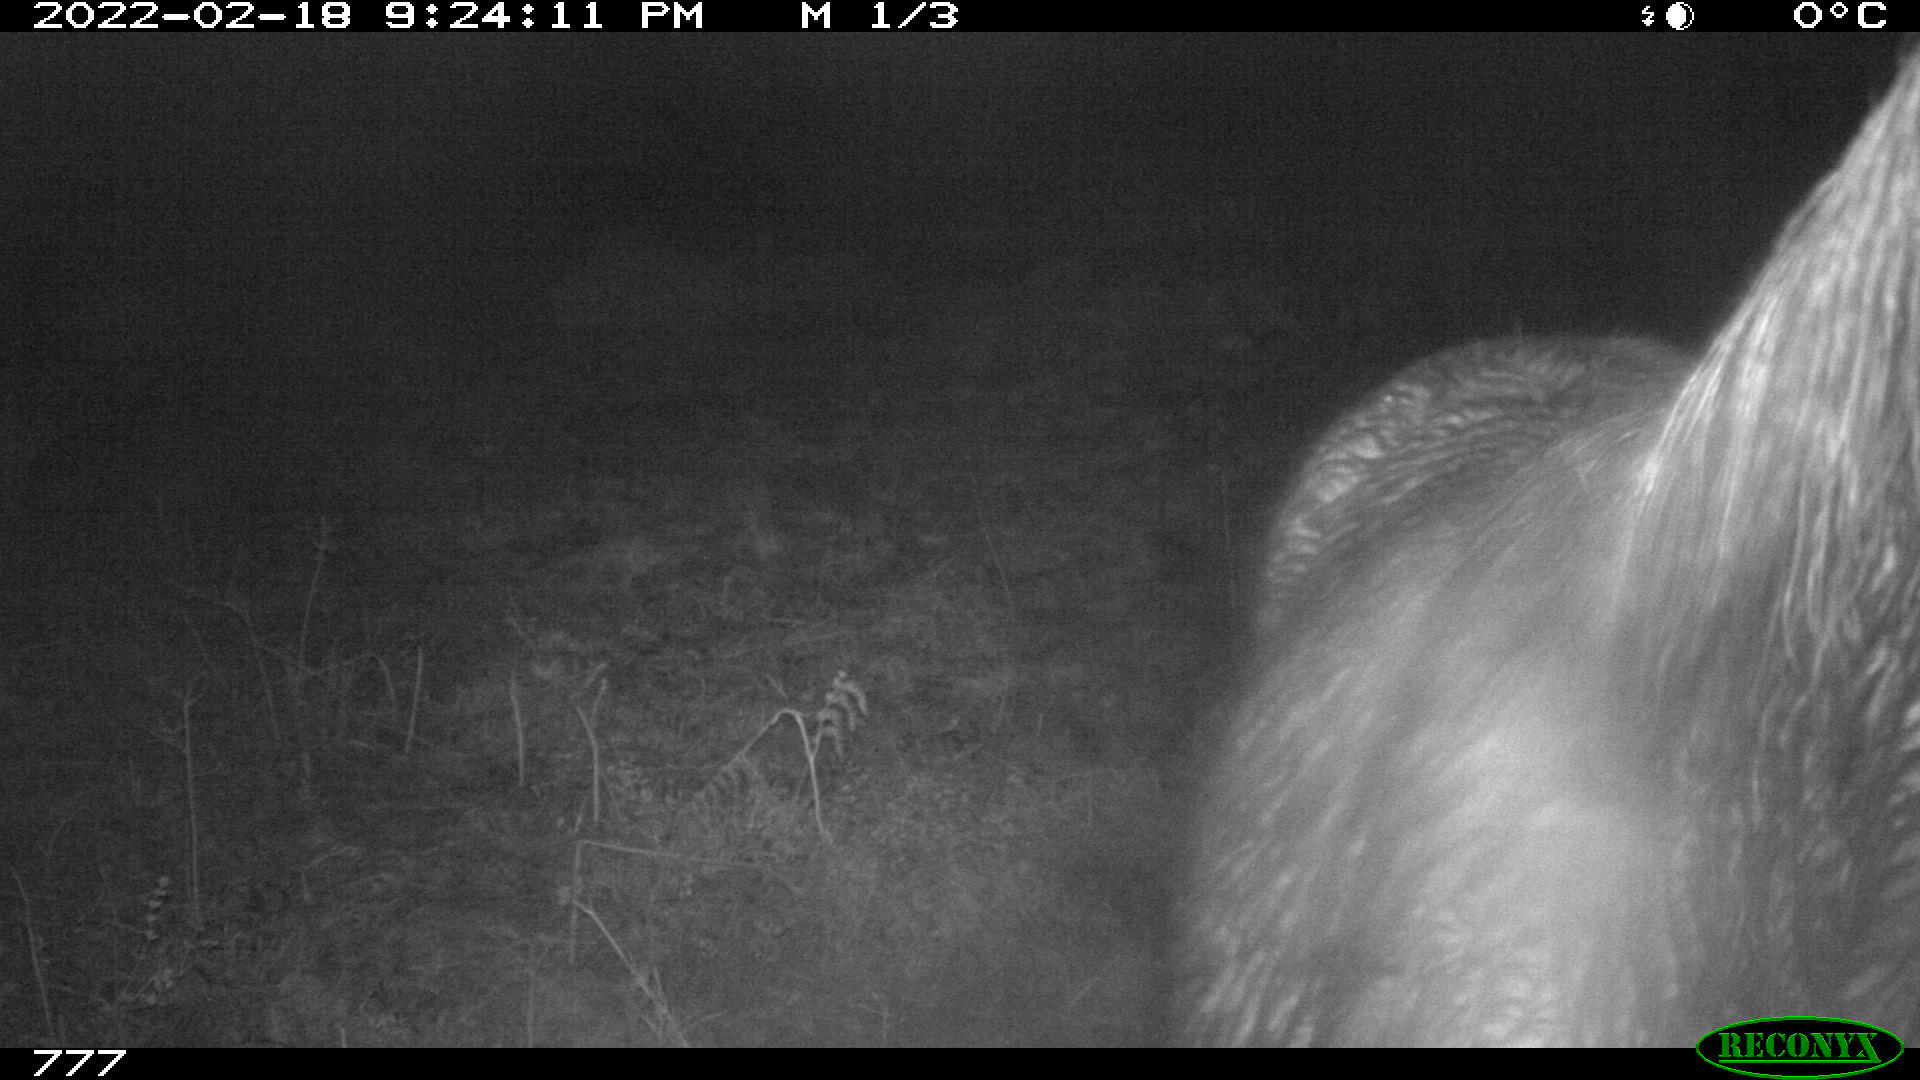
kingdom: Animalia
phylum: Chordata
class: Mammalia
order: Perissodactyla
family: Equidae
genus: Equus
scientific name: Equus caballus
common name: Horse
